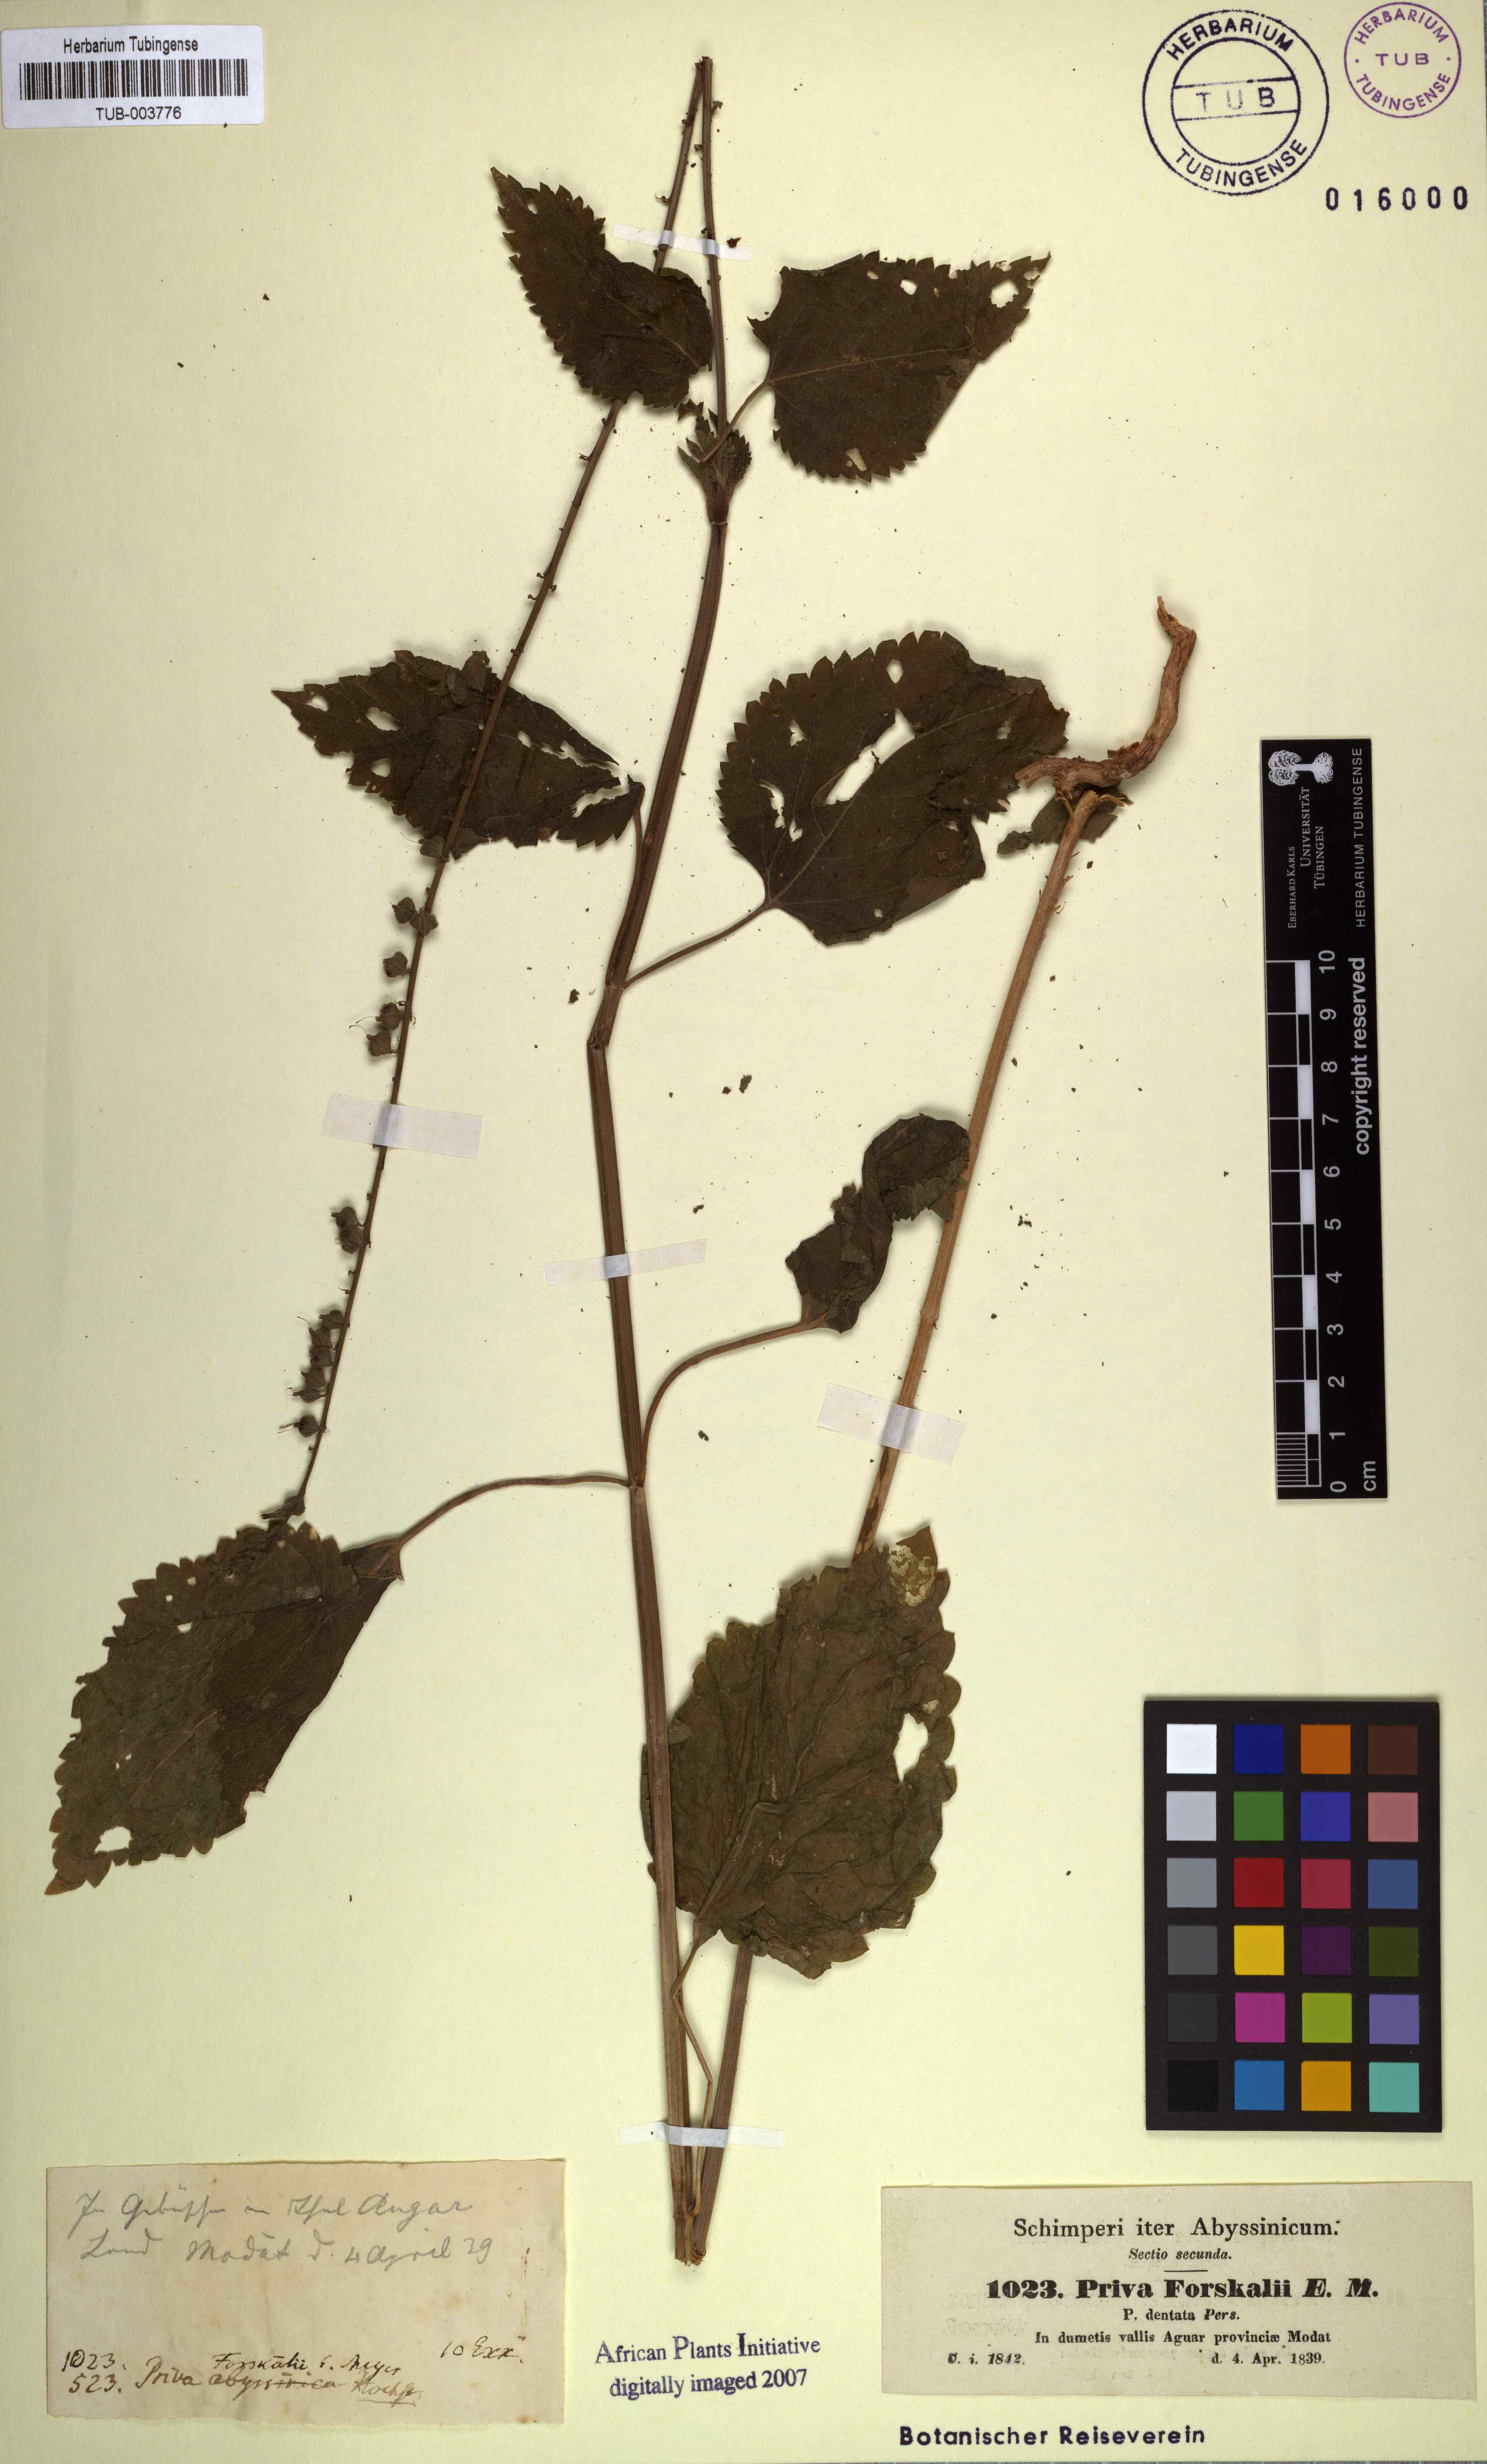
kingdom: Plantae
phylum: Tracheophyta
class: Magnoliopsida
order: Lamiales
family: Verbenaceae
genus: Priva
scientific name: Priva cordifolia
